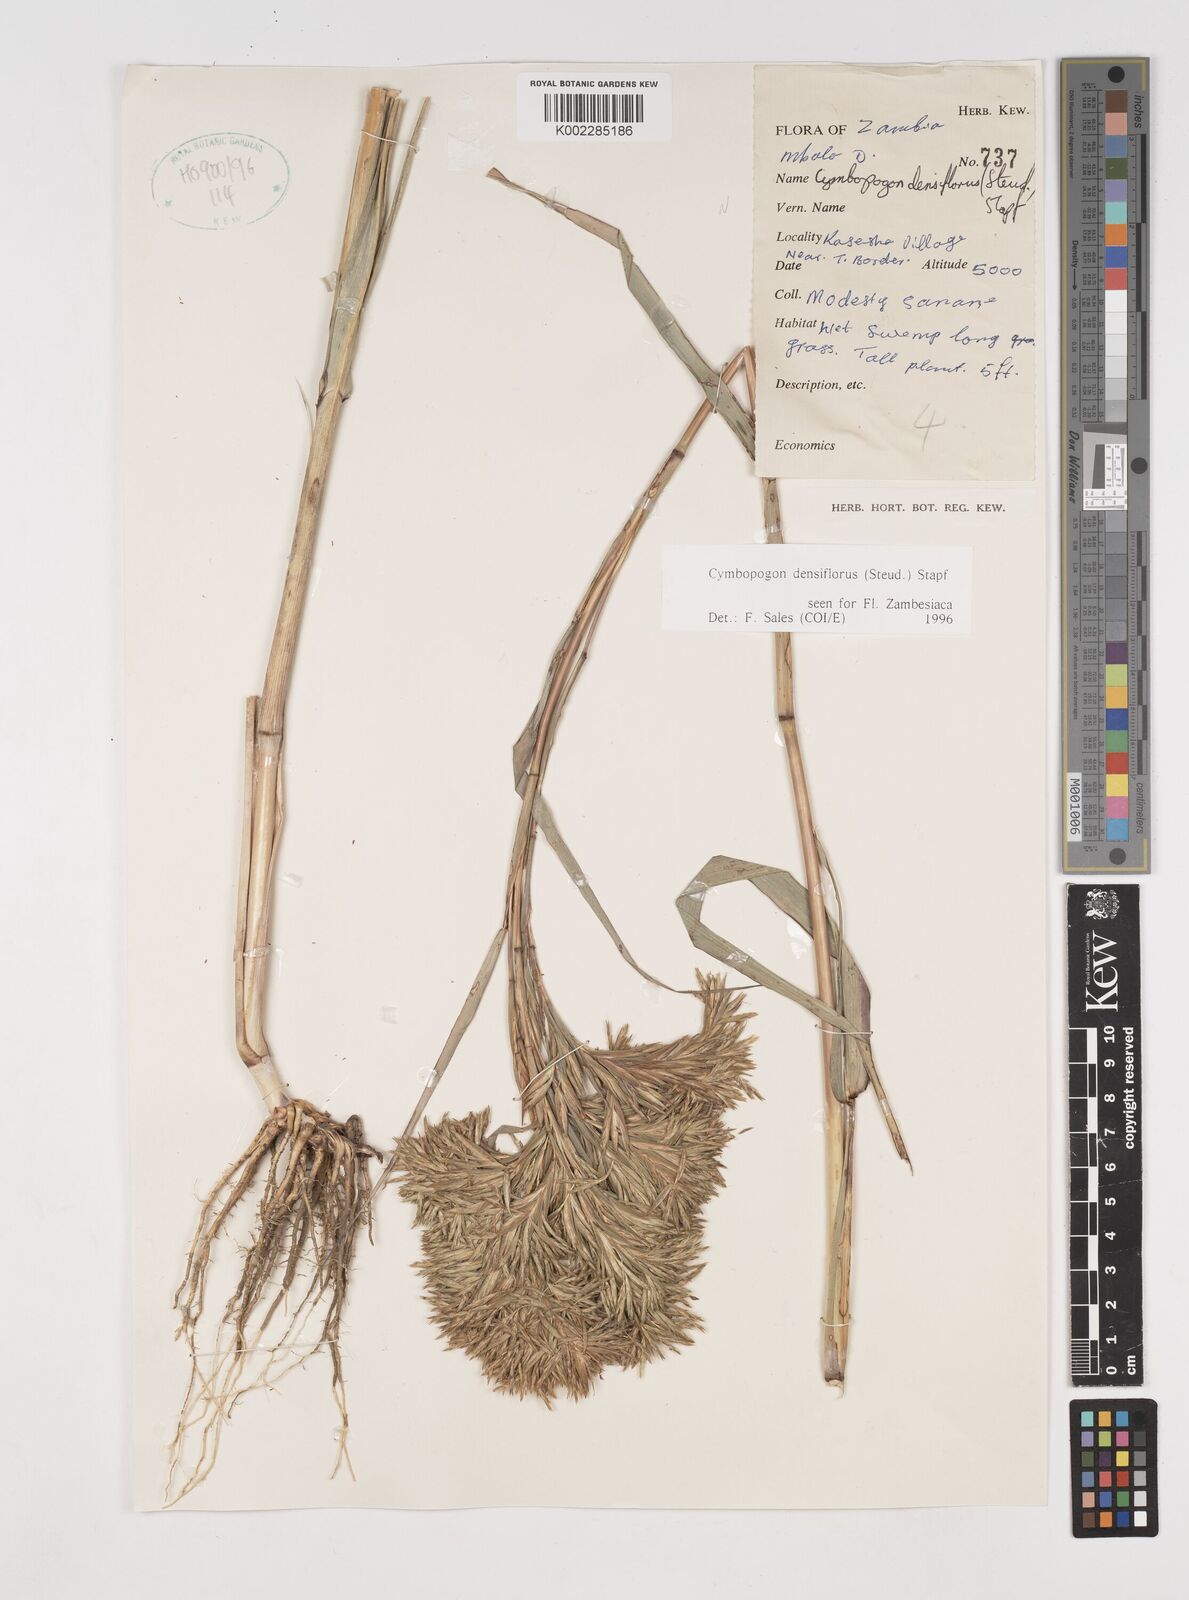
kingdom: Plantae
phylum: Tracheophyta
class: Liliopsida
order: Poales
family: Poaceae
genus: Cymbopogon
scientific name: Cymbopogon densiflorus
